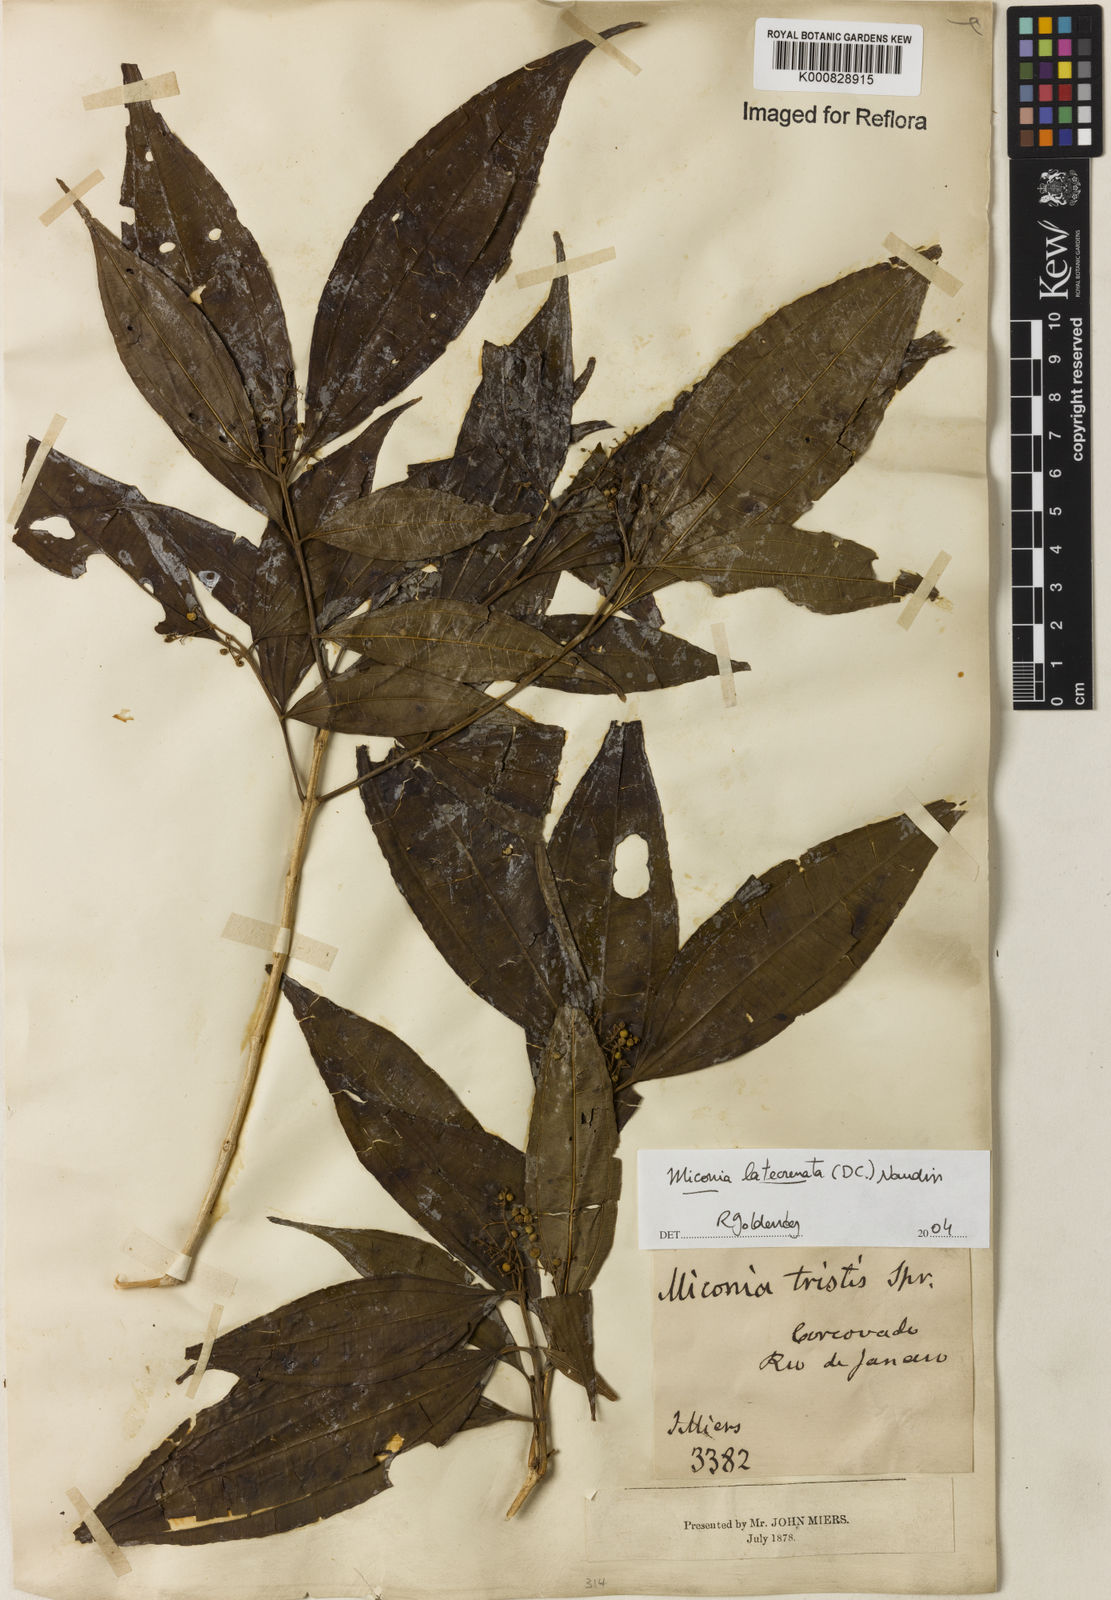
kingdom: Plantae
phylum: Tracheophyta
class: Magnoliopsida
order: Myrtales
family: Melastomataceae
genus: Miconia
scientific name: Miconia latecrenata
